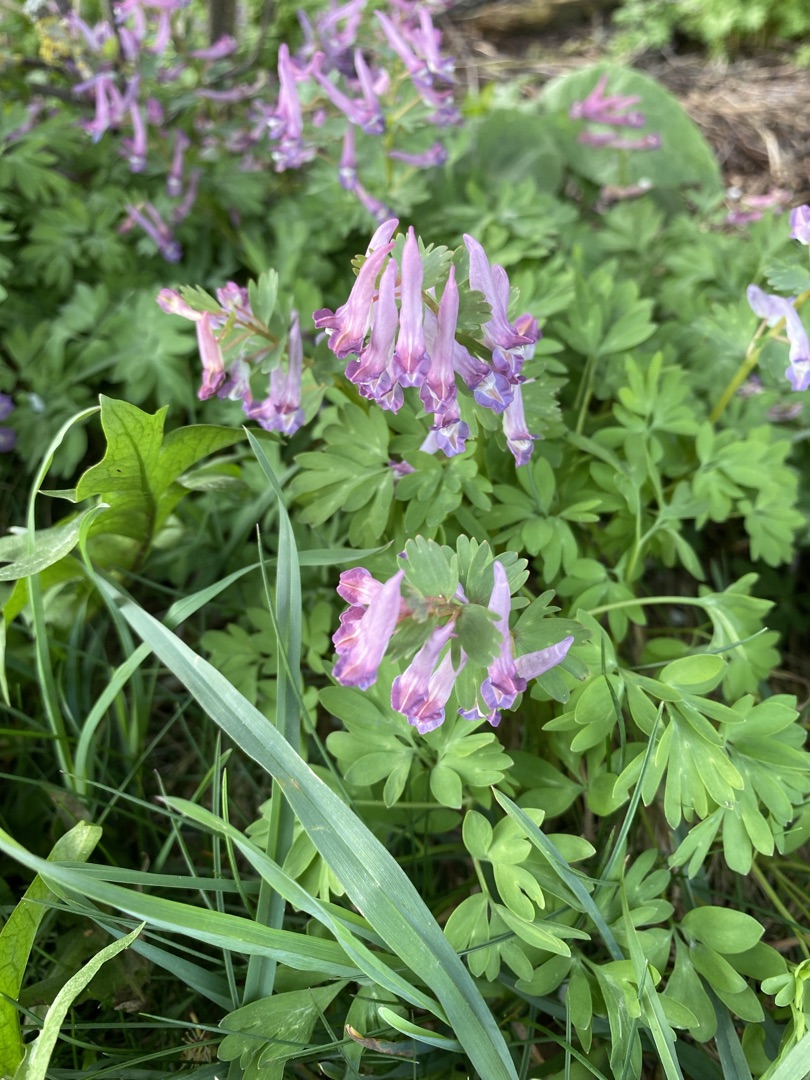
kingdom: Plantae
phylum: Tracheophyta
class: Magnoliopsida
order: Ranunculales
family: Papaveraceae
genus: Corydalis
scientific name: Corydalis solida
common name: Langstilket lærkespore
